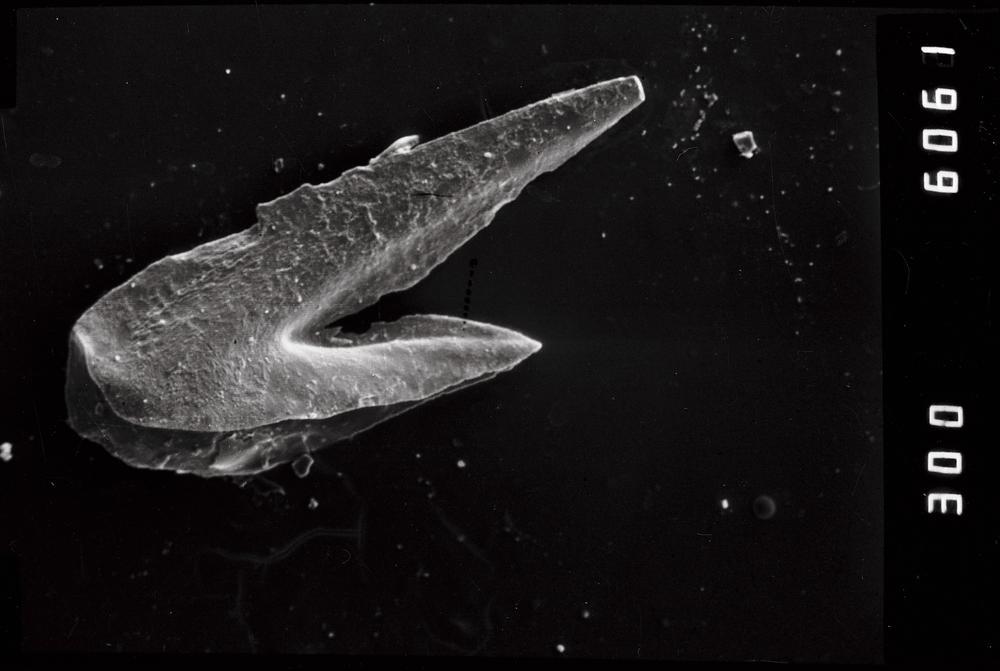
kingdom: Animalia
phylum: Chordata
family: Drepanoistodontidae
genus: Drepanoistodus
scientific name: Drepanoistodus Oistodus forceps
